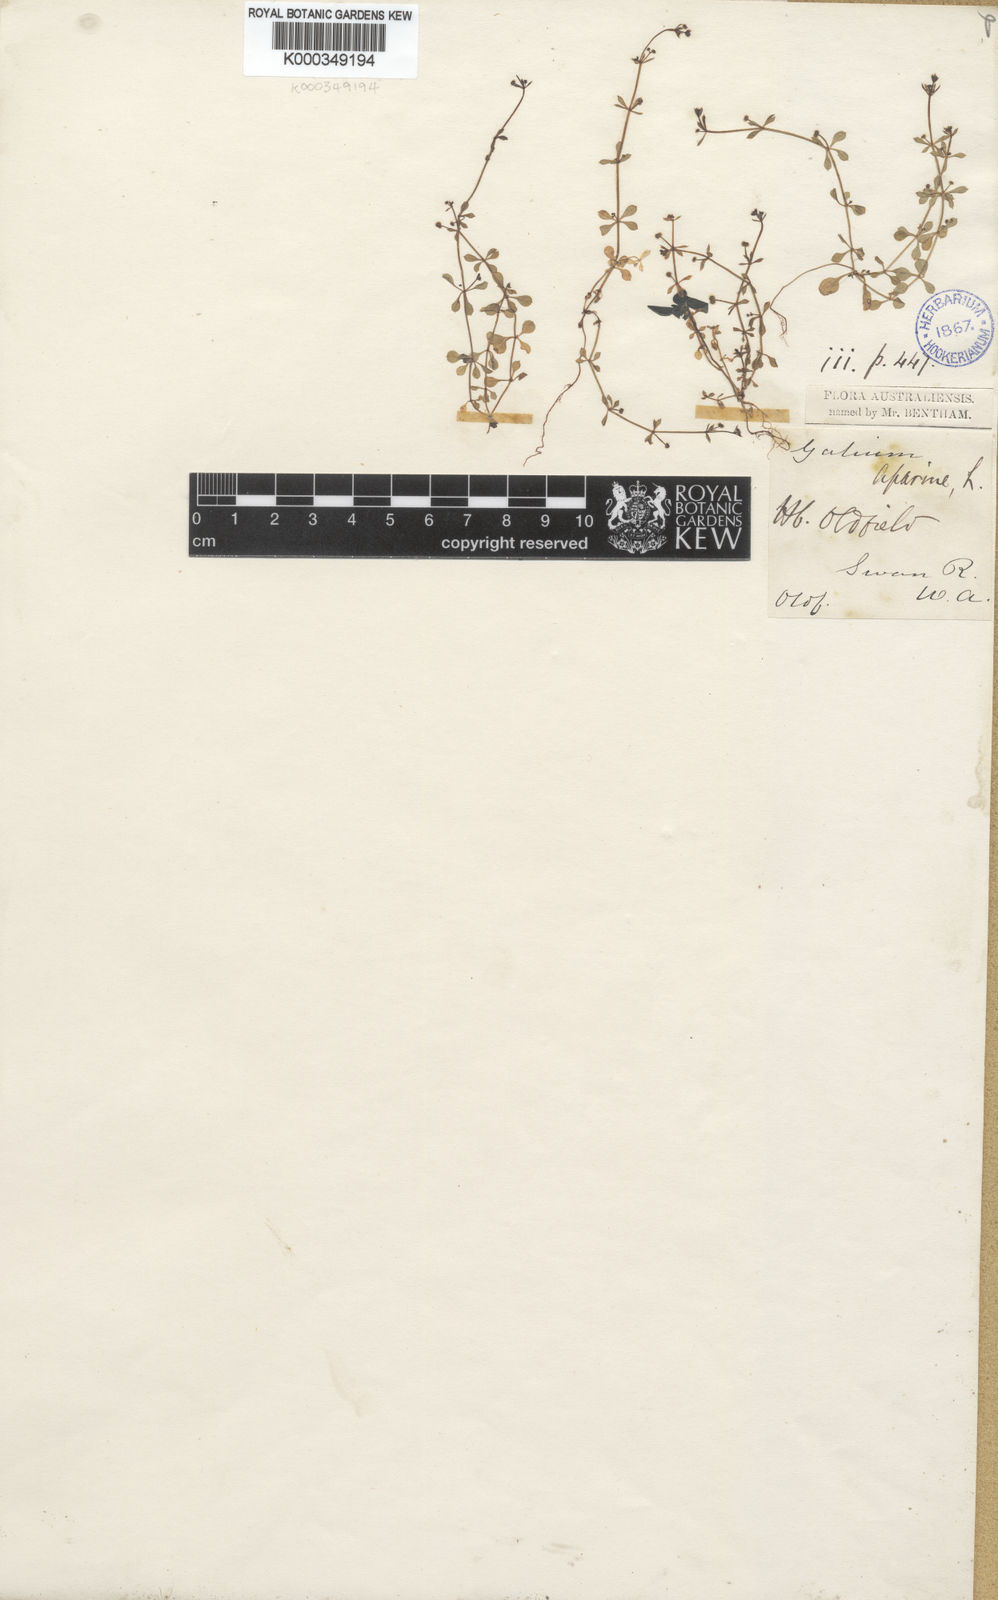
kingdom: Plantae
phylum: Tracheophyta
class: Magnoliopsida
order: Gentianales
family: Rubiaceae
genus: Galium
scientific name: Galium aparine
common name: Cleavers
